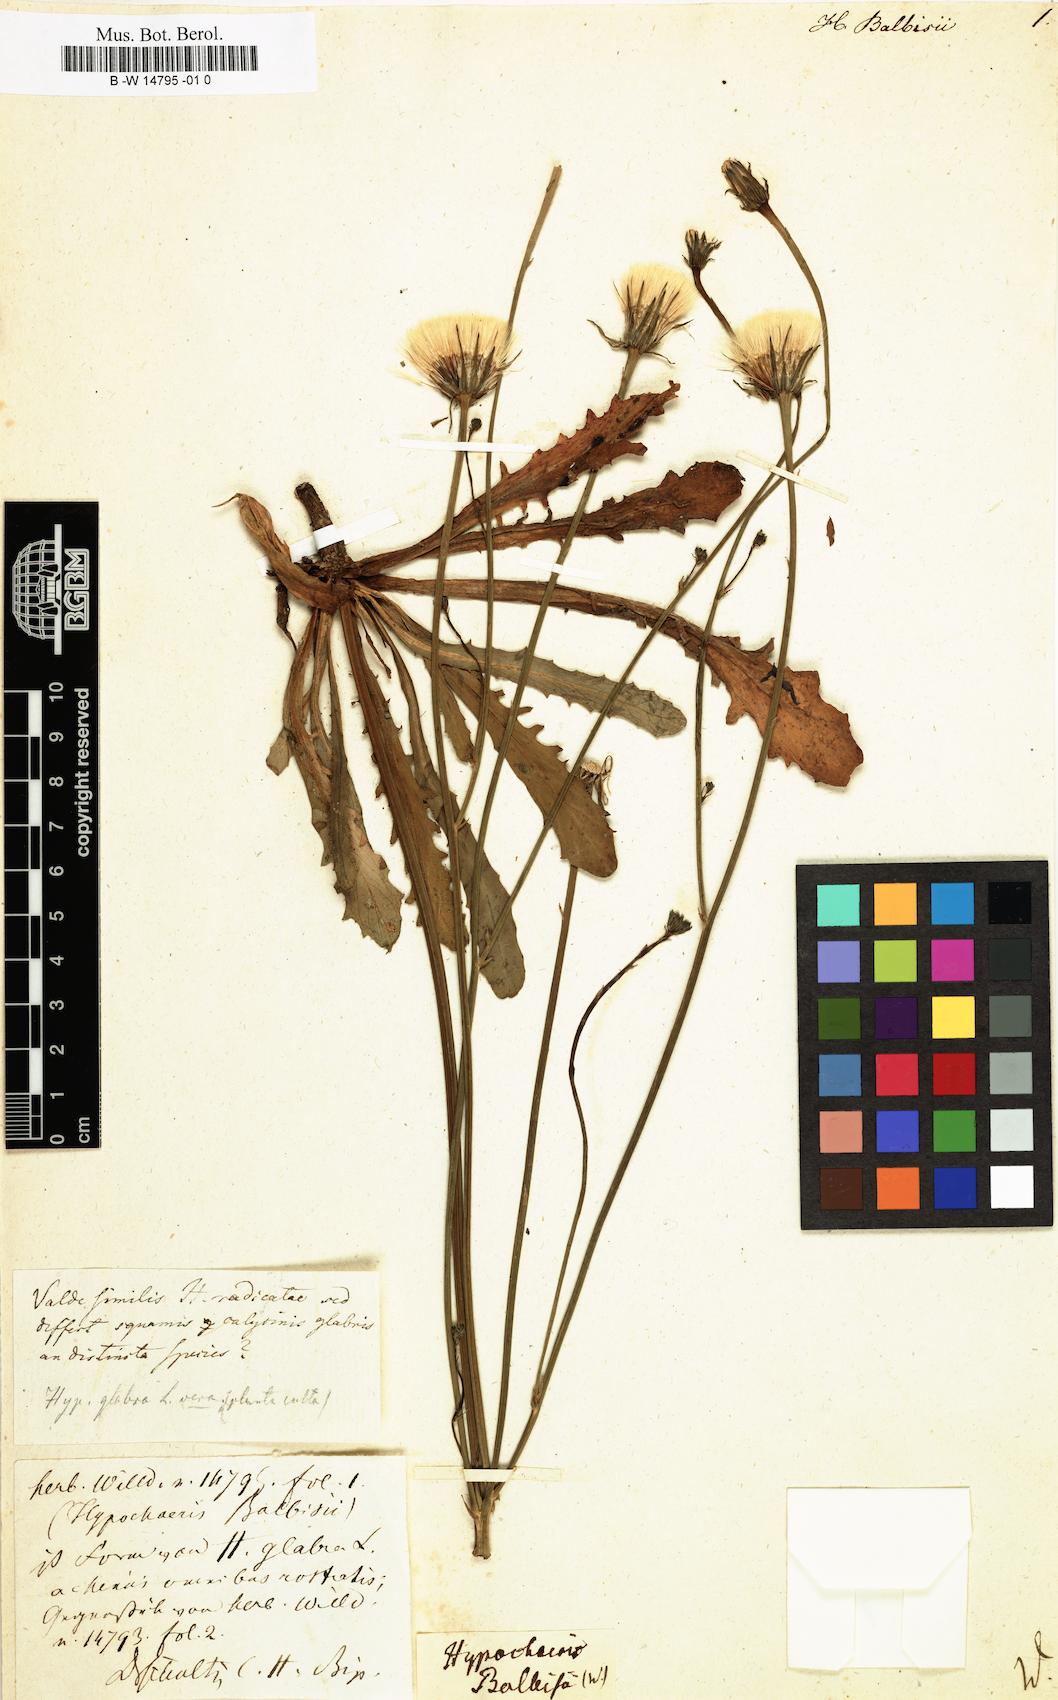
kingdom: Plantae
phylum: Tracheophyta
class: Magnoliopsida
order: Asterales
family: Asteraceae
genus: Hypochaeris
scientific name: Hypochaeris balbisii
